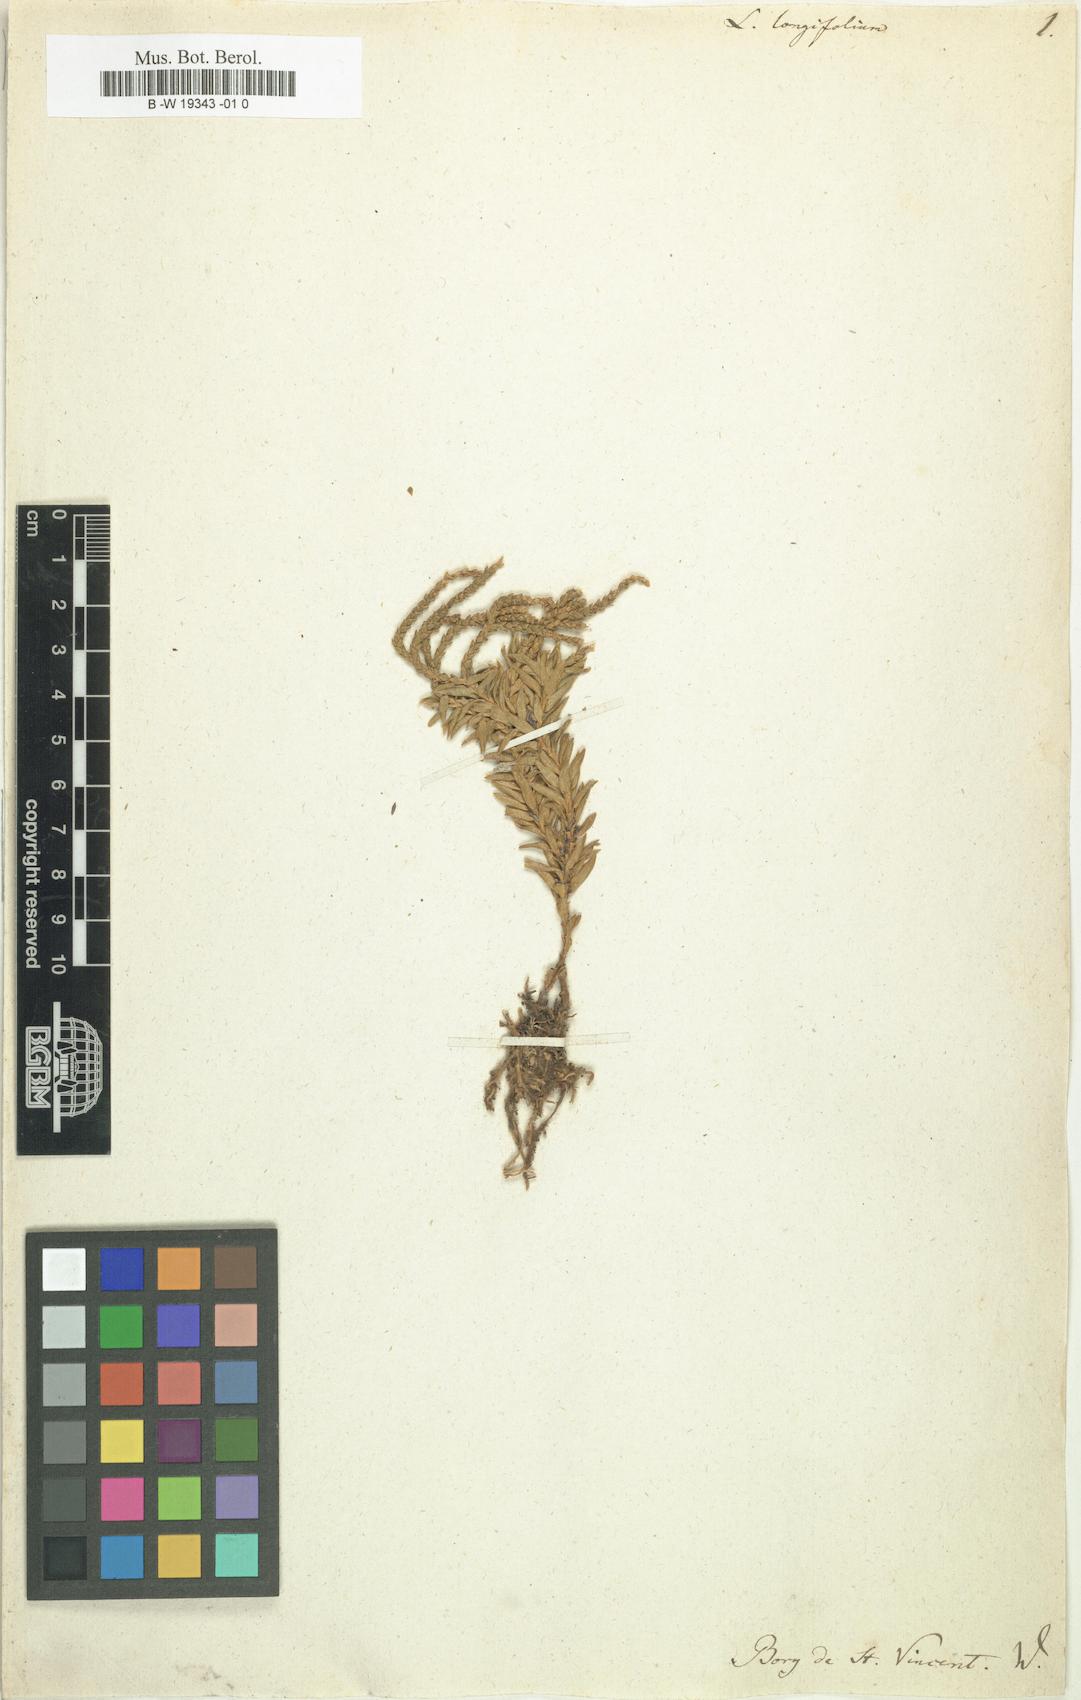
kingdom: Plantae
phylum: Tracheophyta
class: Lycopodiopsida
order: Lycopodiales
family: Lycopodiaceae
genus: Phlegmariurus
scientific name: Phlegmariurus ophioglossoides
